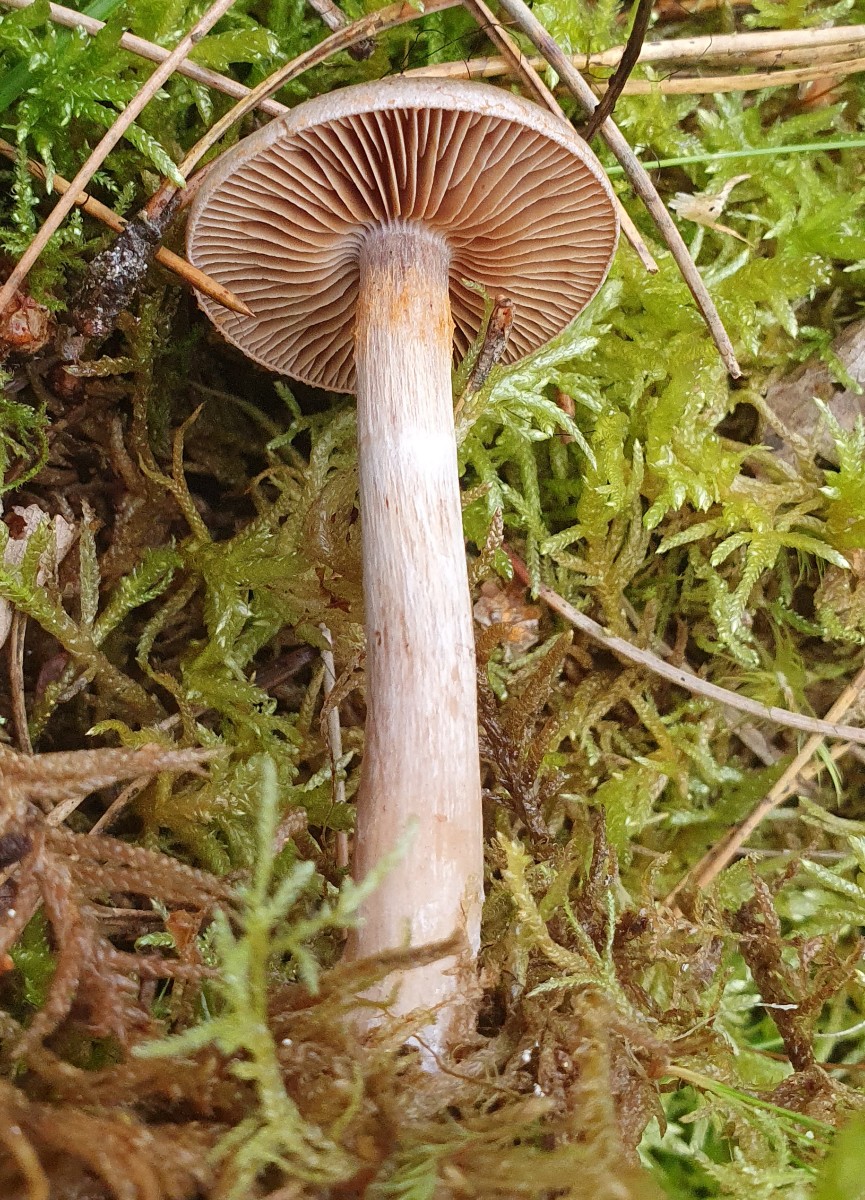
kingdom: Fungi
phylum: Basidiomycota
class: Agaricomycetes
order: Agaricales
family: Cortinariaceae
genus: Cortinarius
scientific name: Cortinarius
